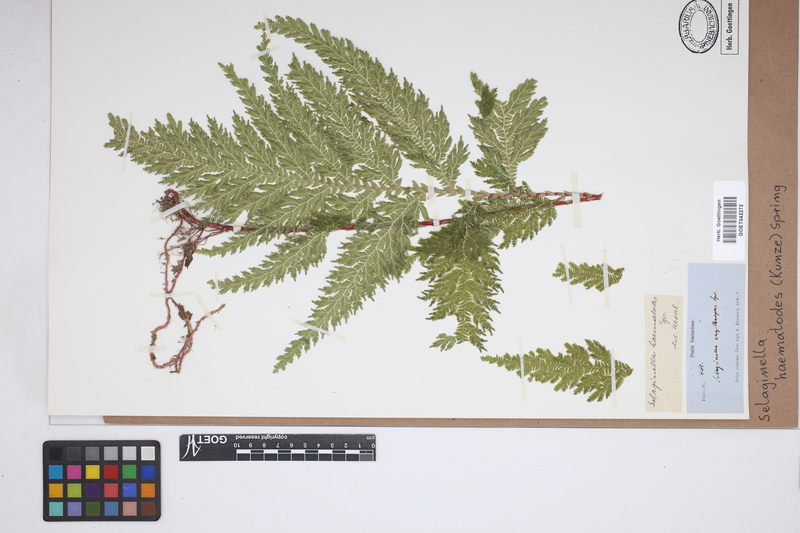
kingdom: Plantae
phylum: Tracheophyta
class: Lycopodiopsida
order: Selaginellales
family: Selaginellaceae
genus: Selaginella
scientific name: Selaginella haematodes
